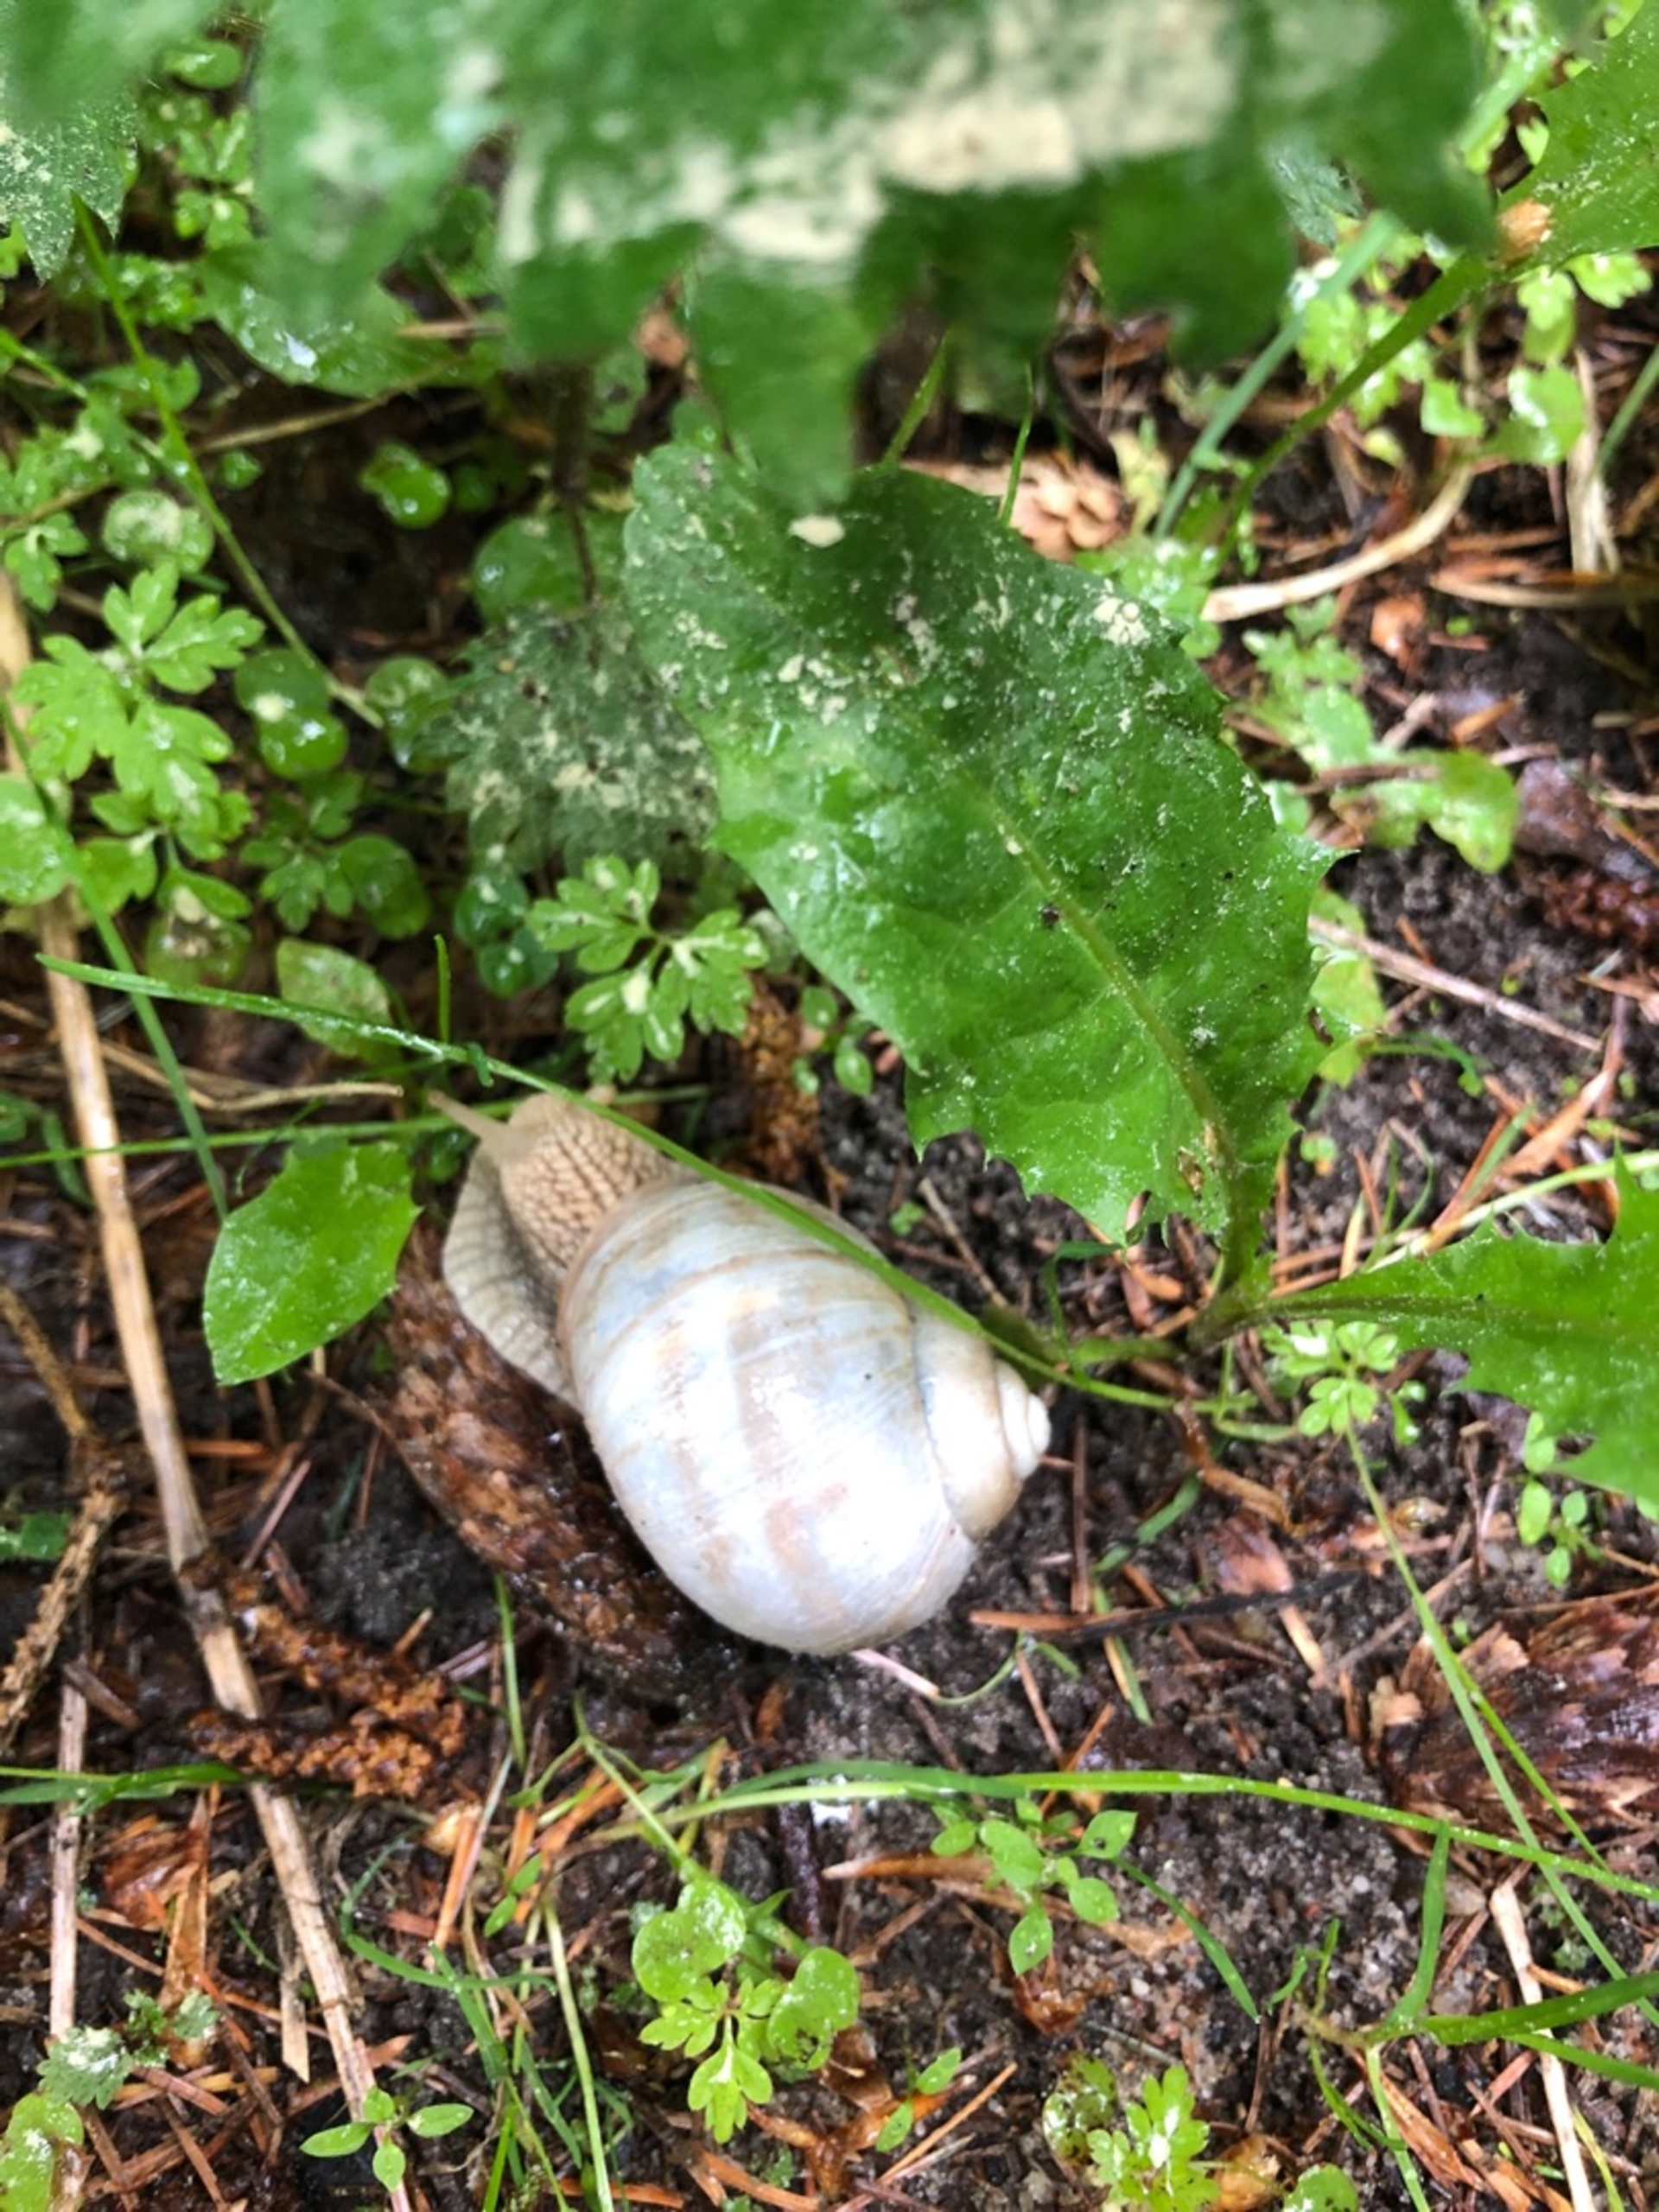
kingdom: Animalia
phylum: Mollusca
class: Gastropoda
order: Stylommatophora
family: Helicidae
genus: Helix
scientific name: Helix pomatia
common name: Vinbjergsnegl
